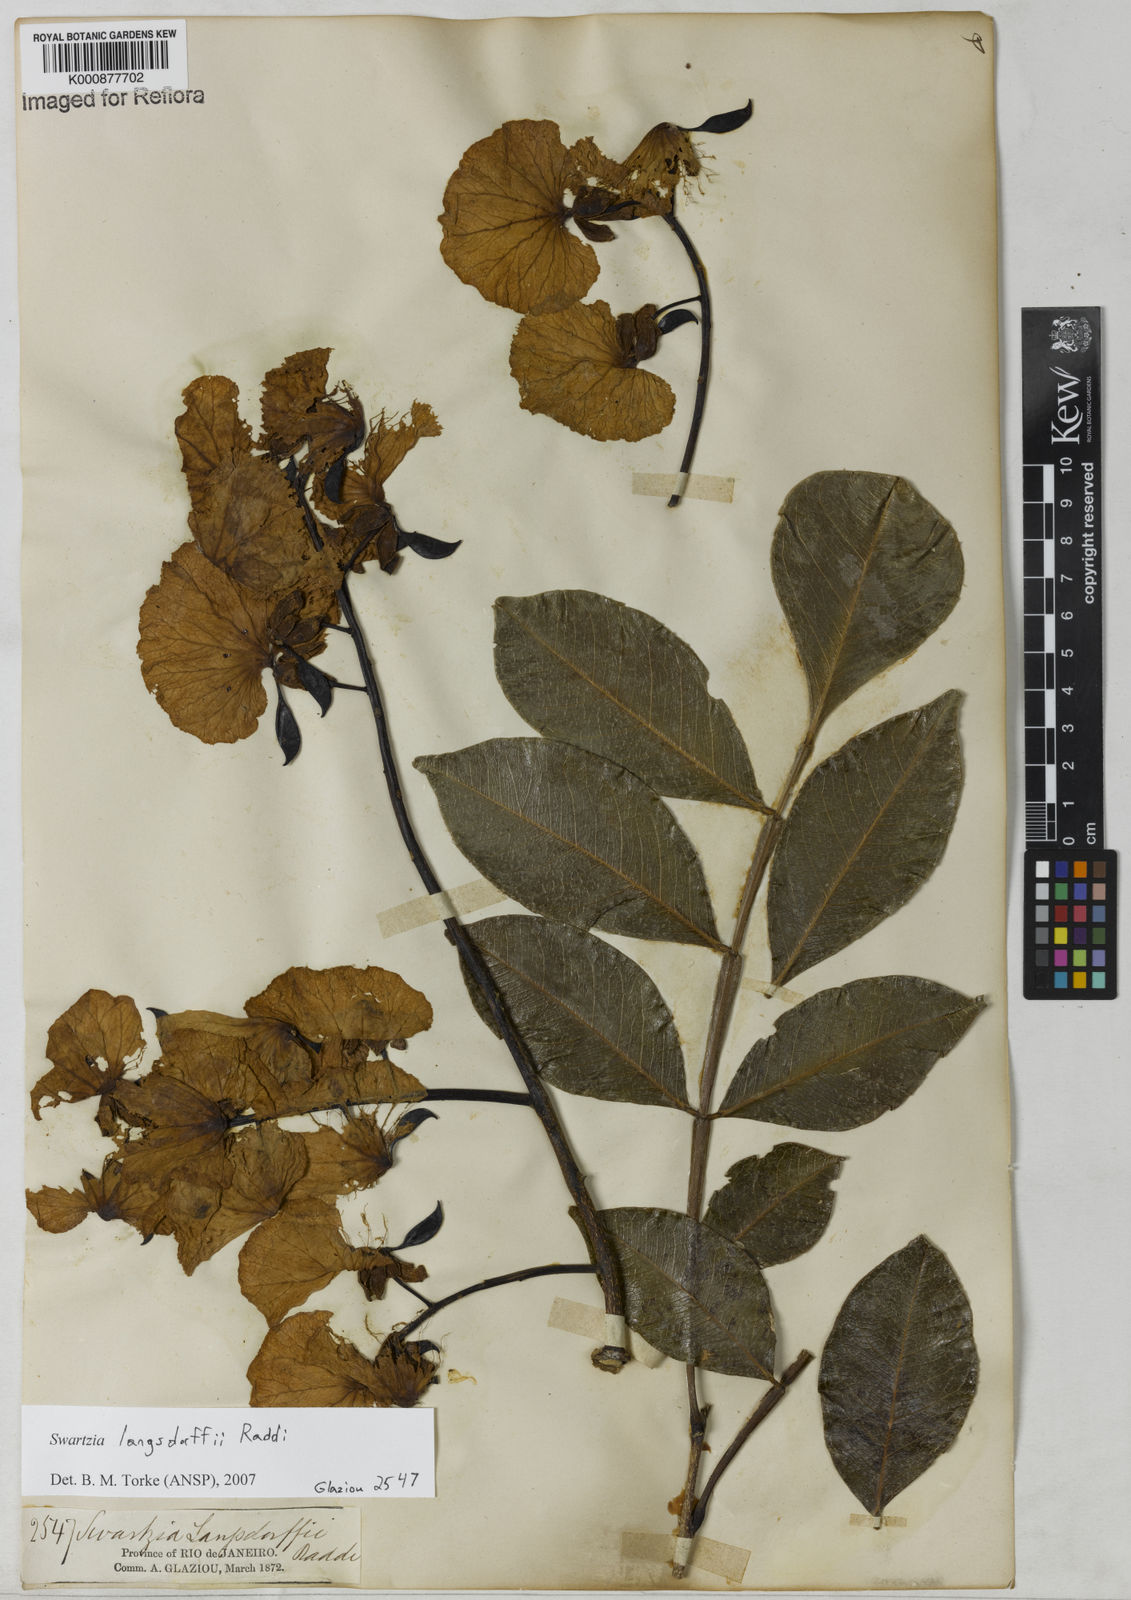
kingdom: Plantae
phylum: Tracheophyta
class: Magnoliopsida
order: Fabales
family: Fabaceae
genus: Swartzia
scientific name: Swartzia langsdorffii
